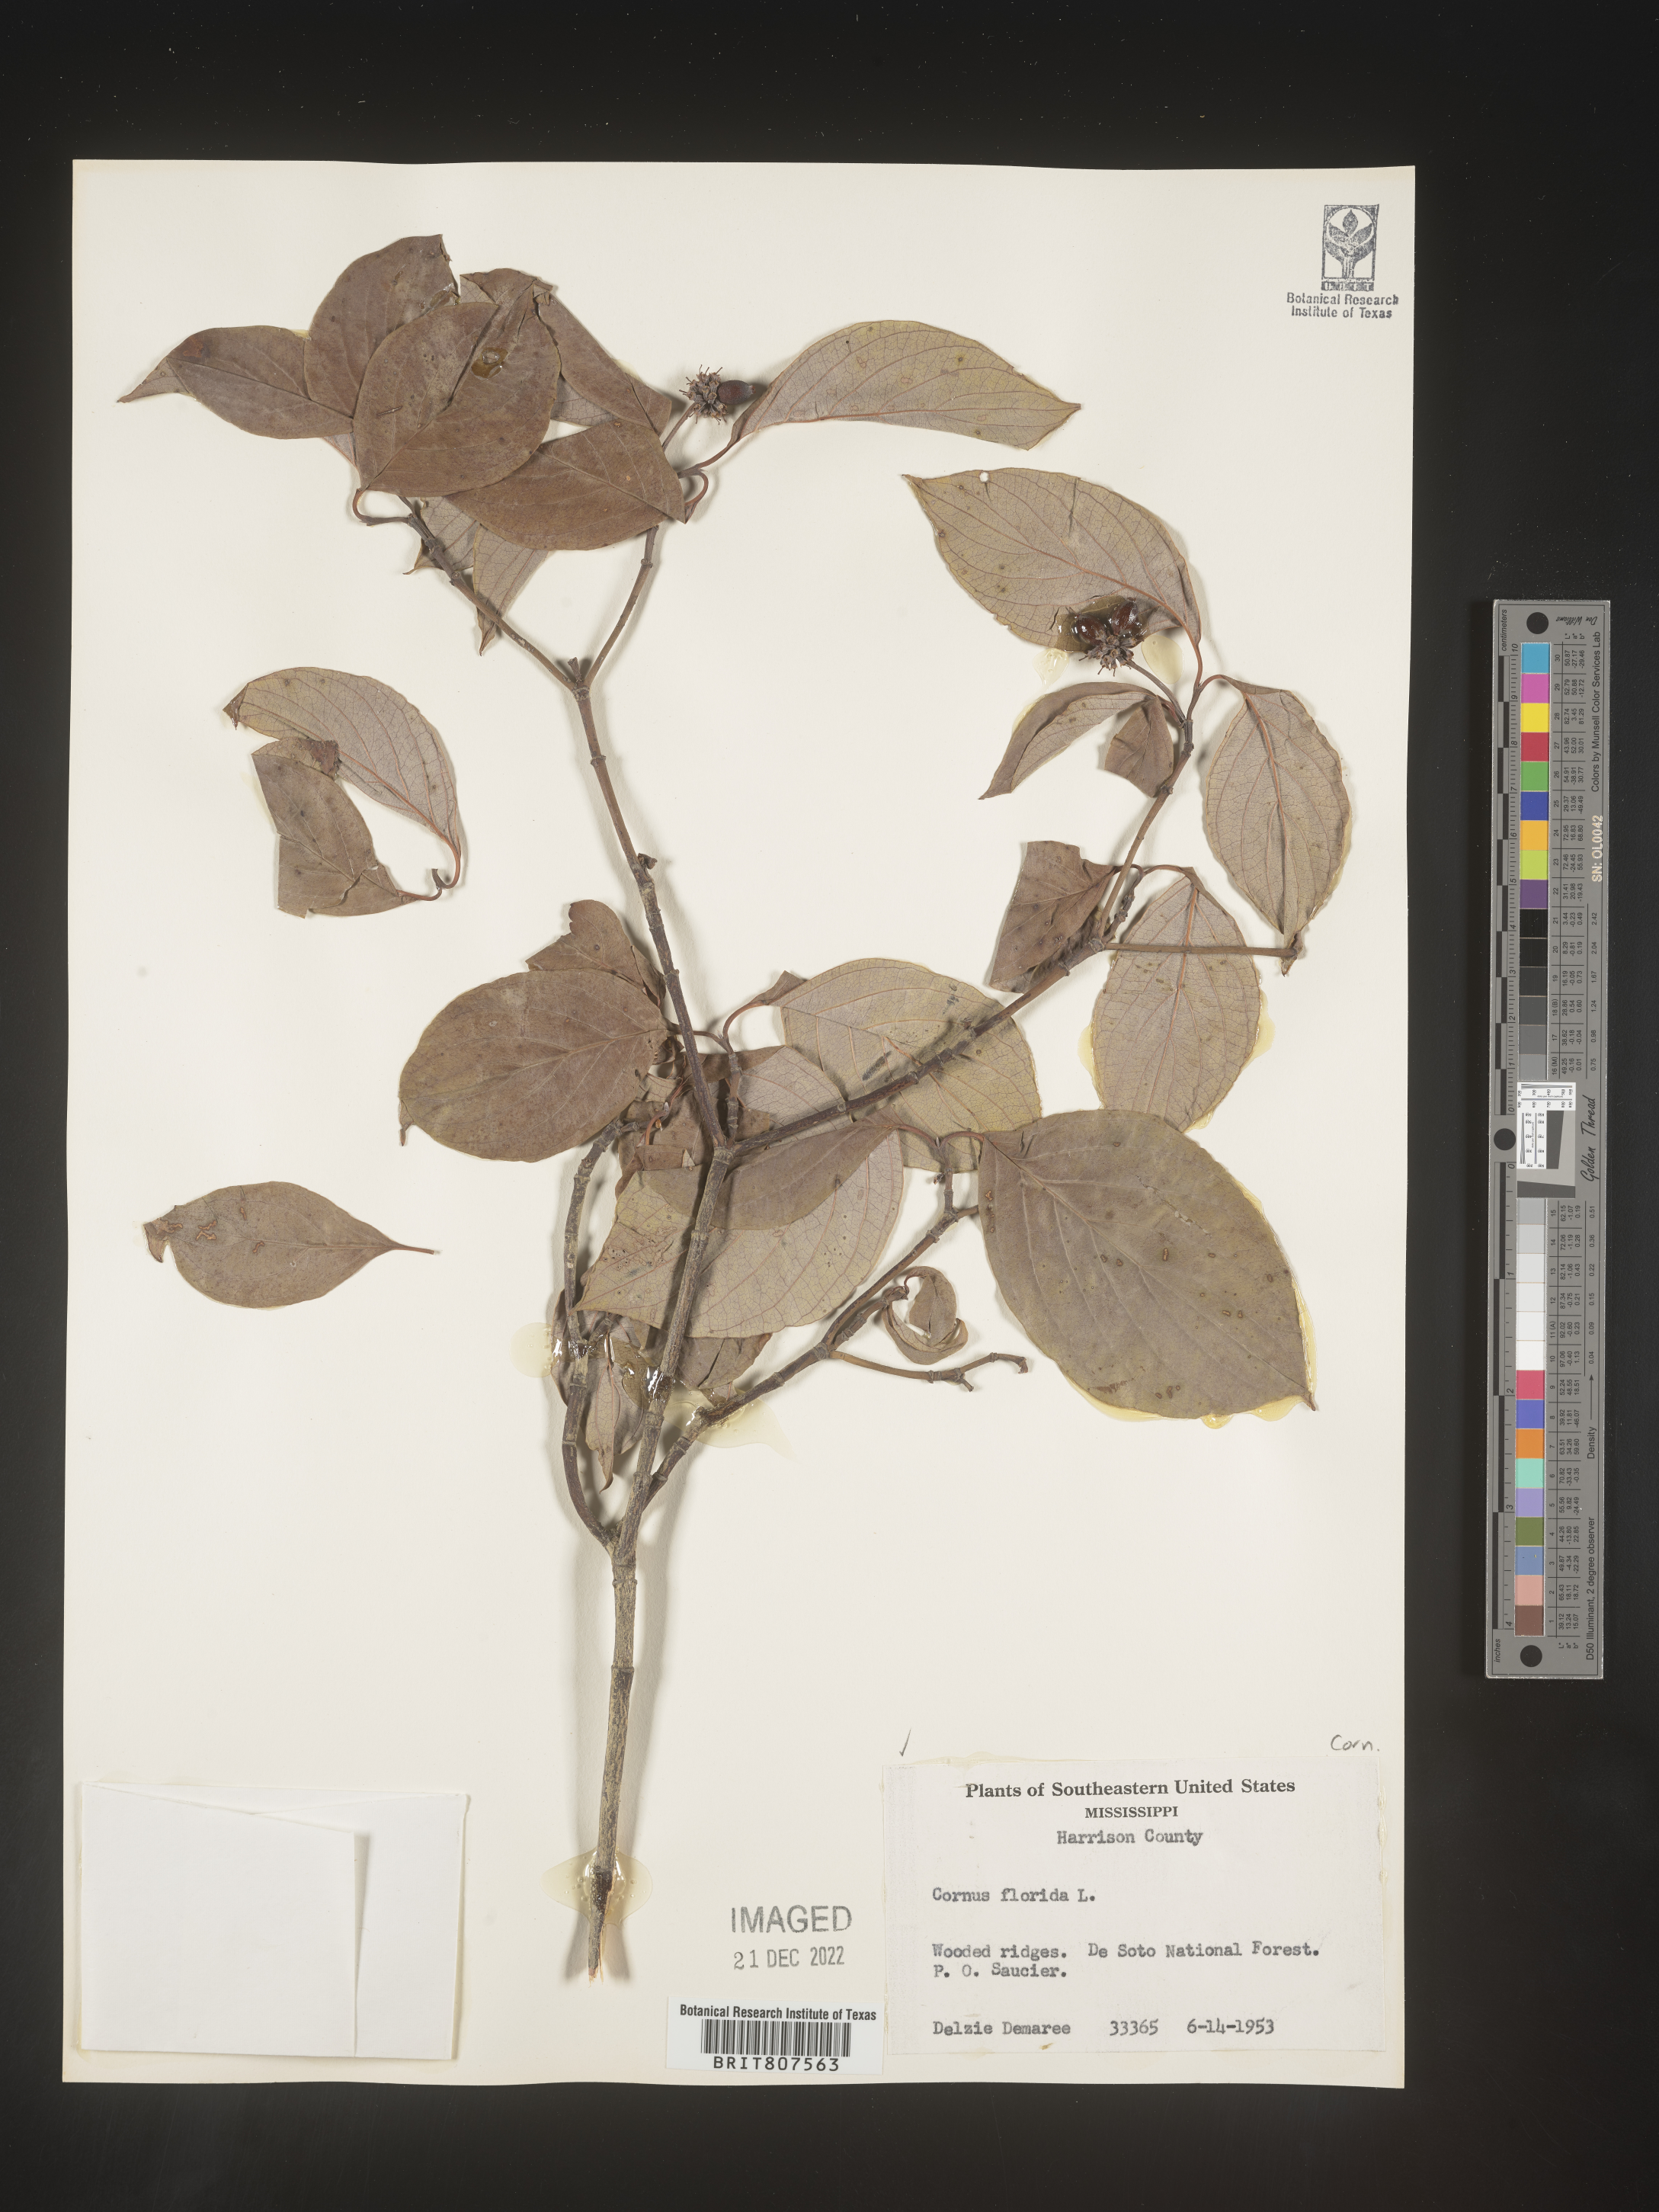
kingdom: Plantae
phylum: Tracheophyta
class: Magnoliopsida
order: Cornales
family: Cornaceae
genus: Cornus
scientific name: Cornus florida
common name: Flowering dogwood
